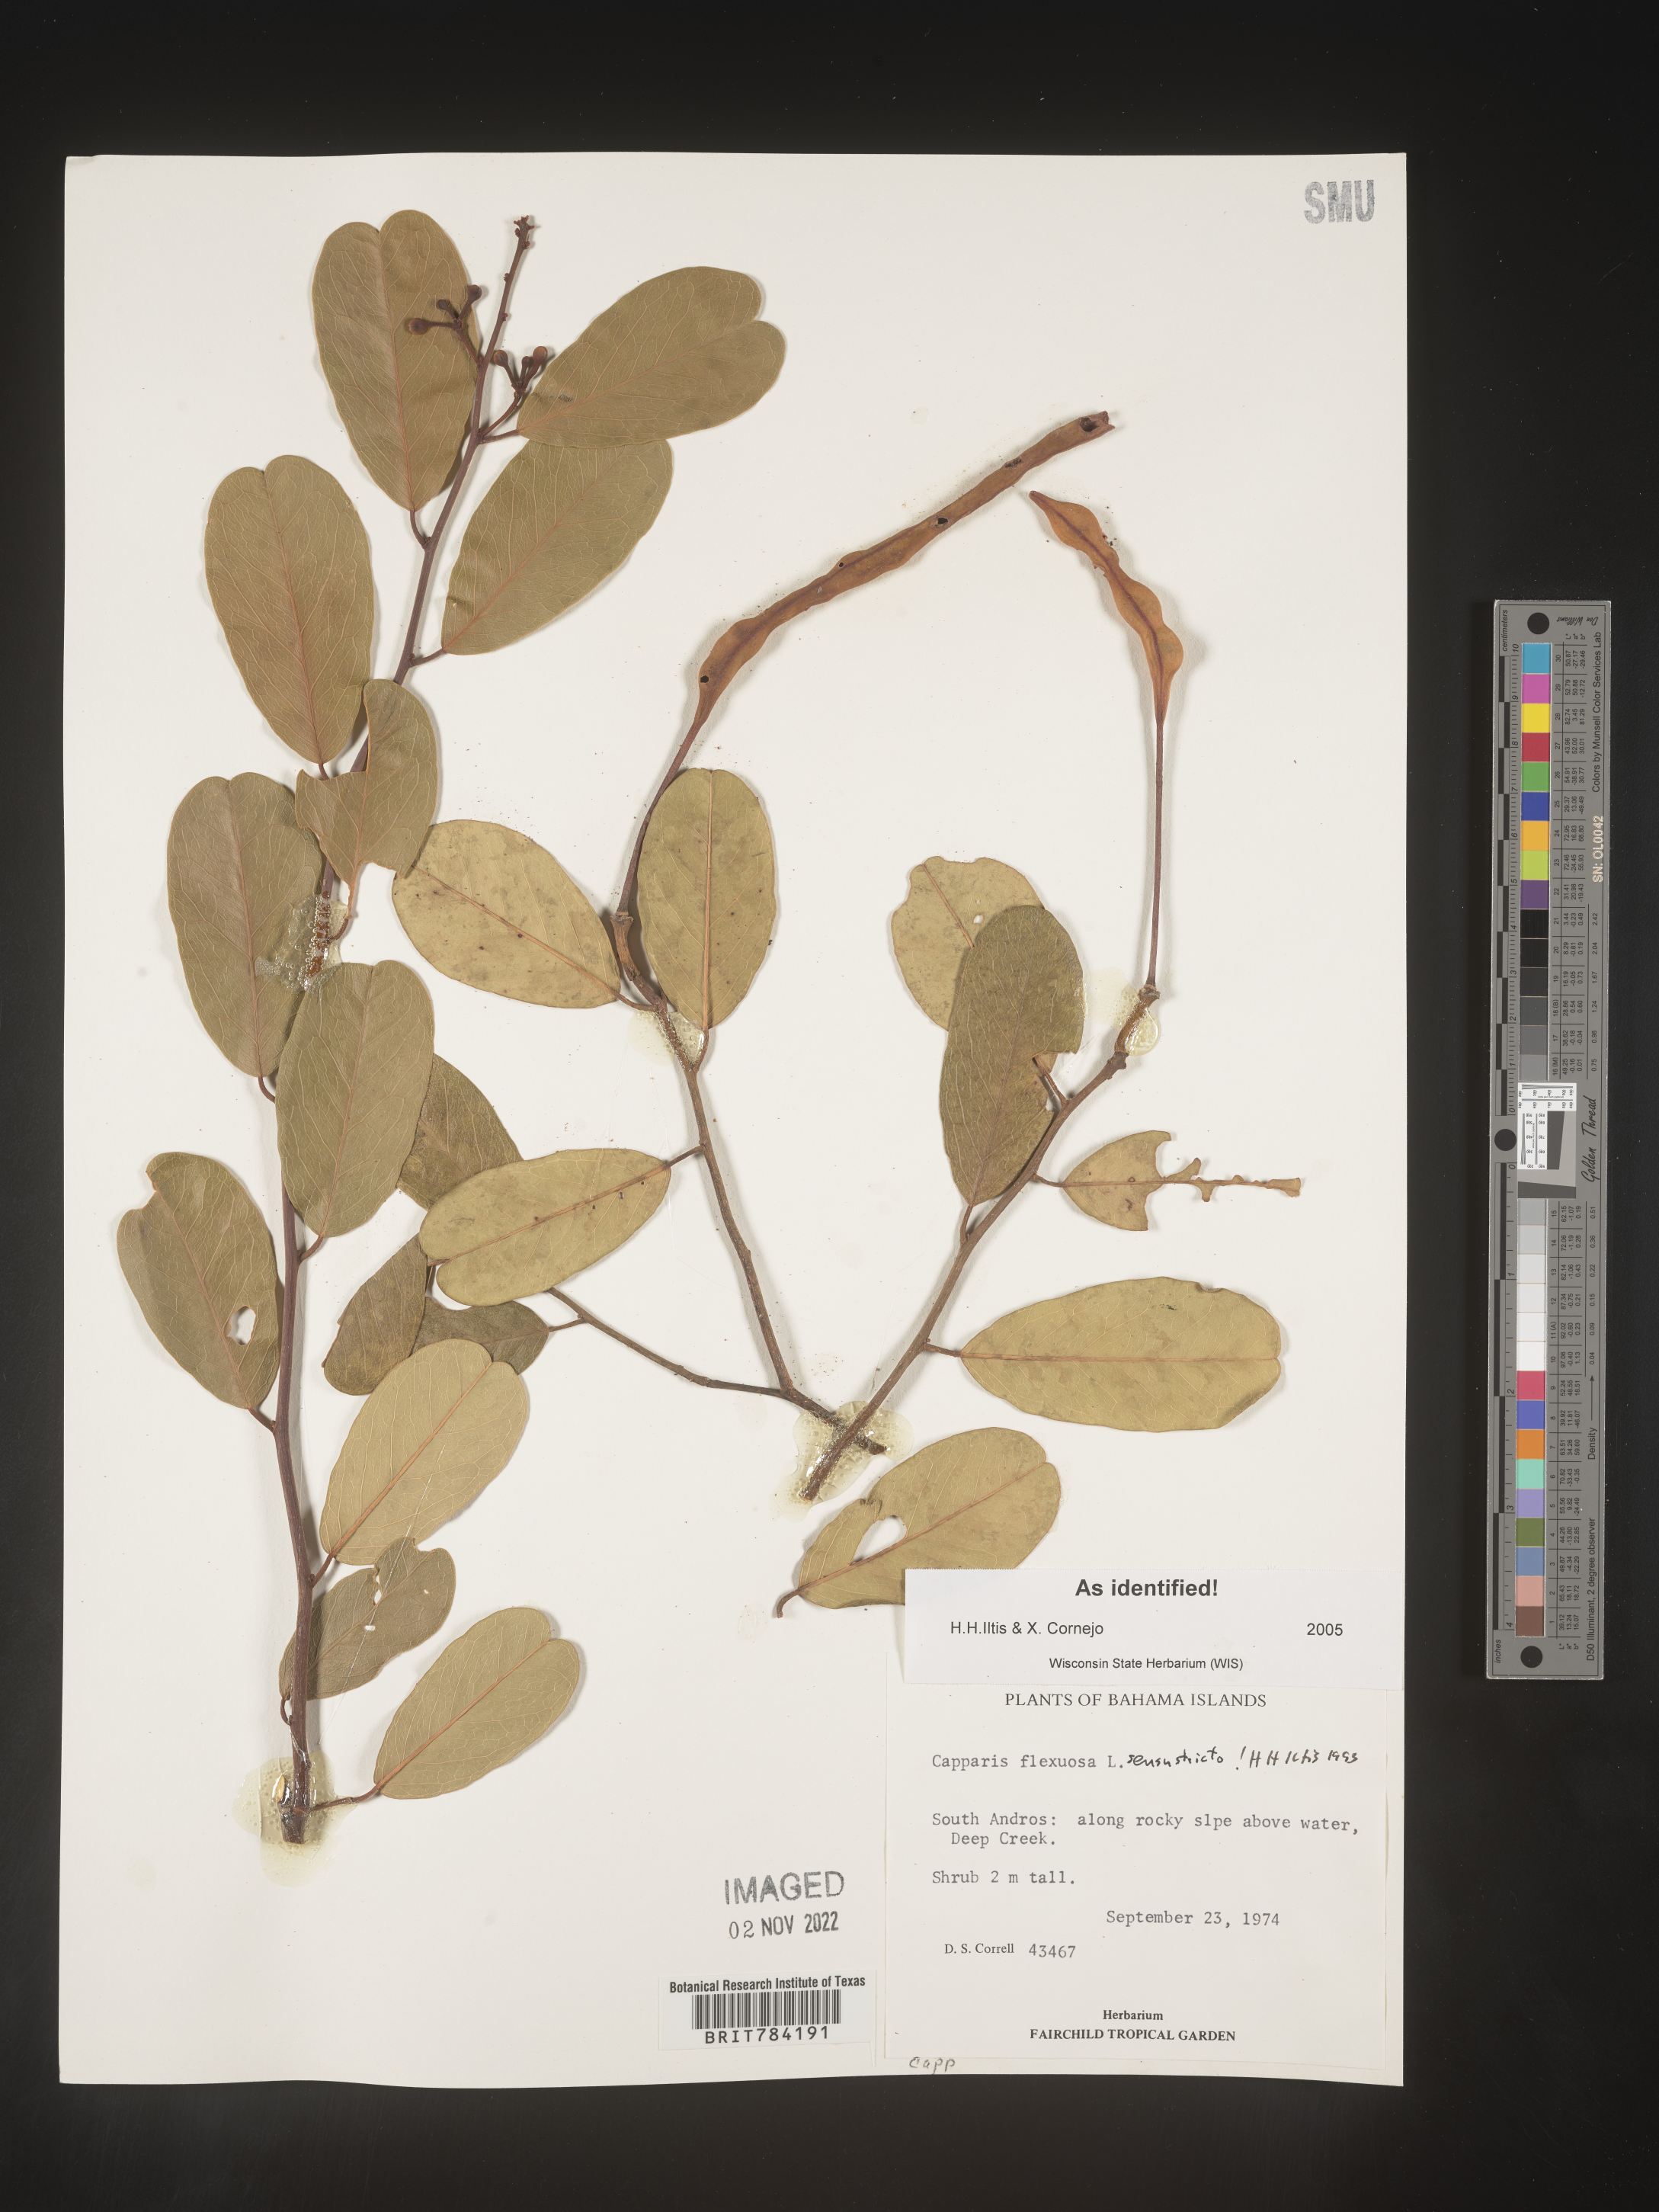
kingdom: Plantae
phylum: Tracheophyta
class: Magnoliopsida
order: Brassicales
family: Capparaceae
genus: Capparis
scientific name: Capparis
